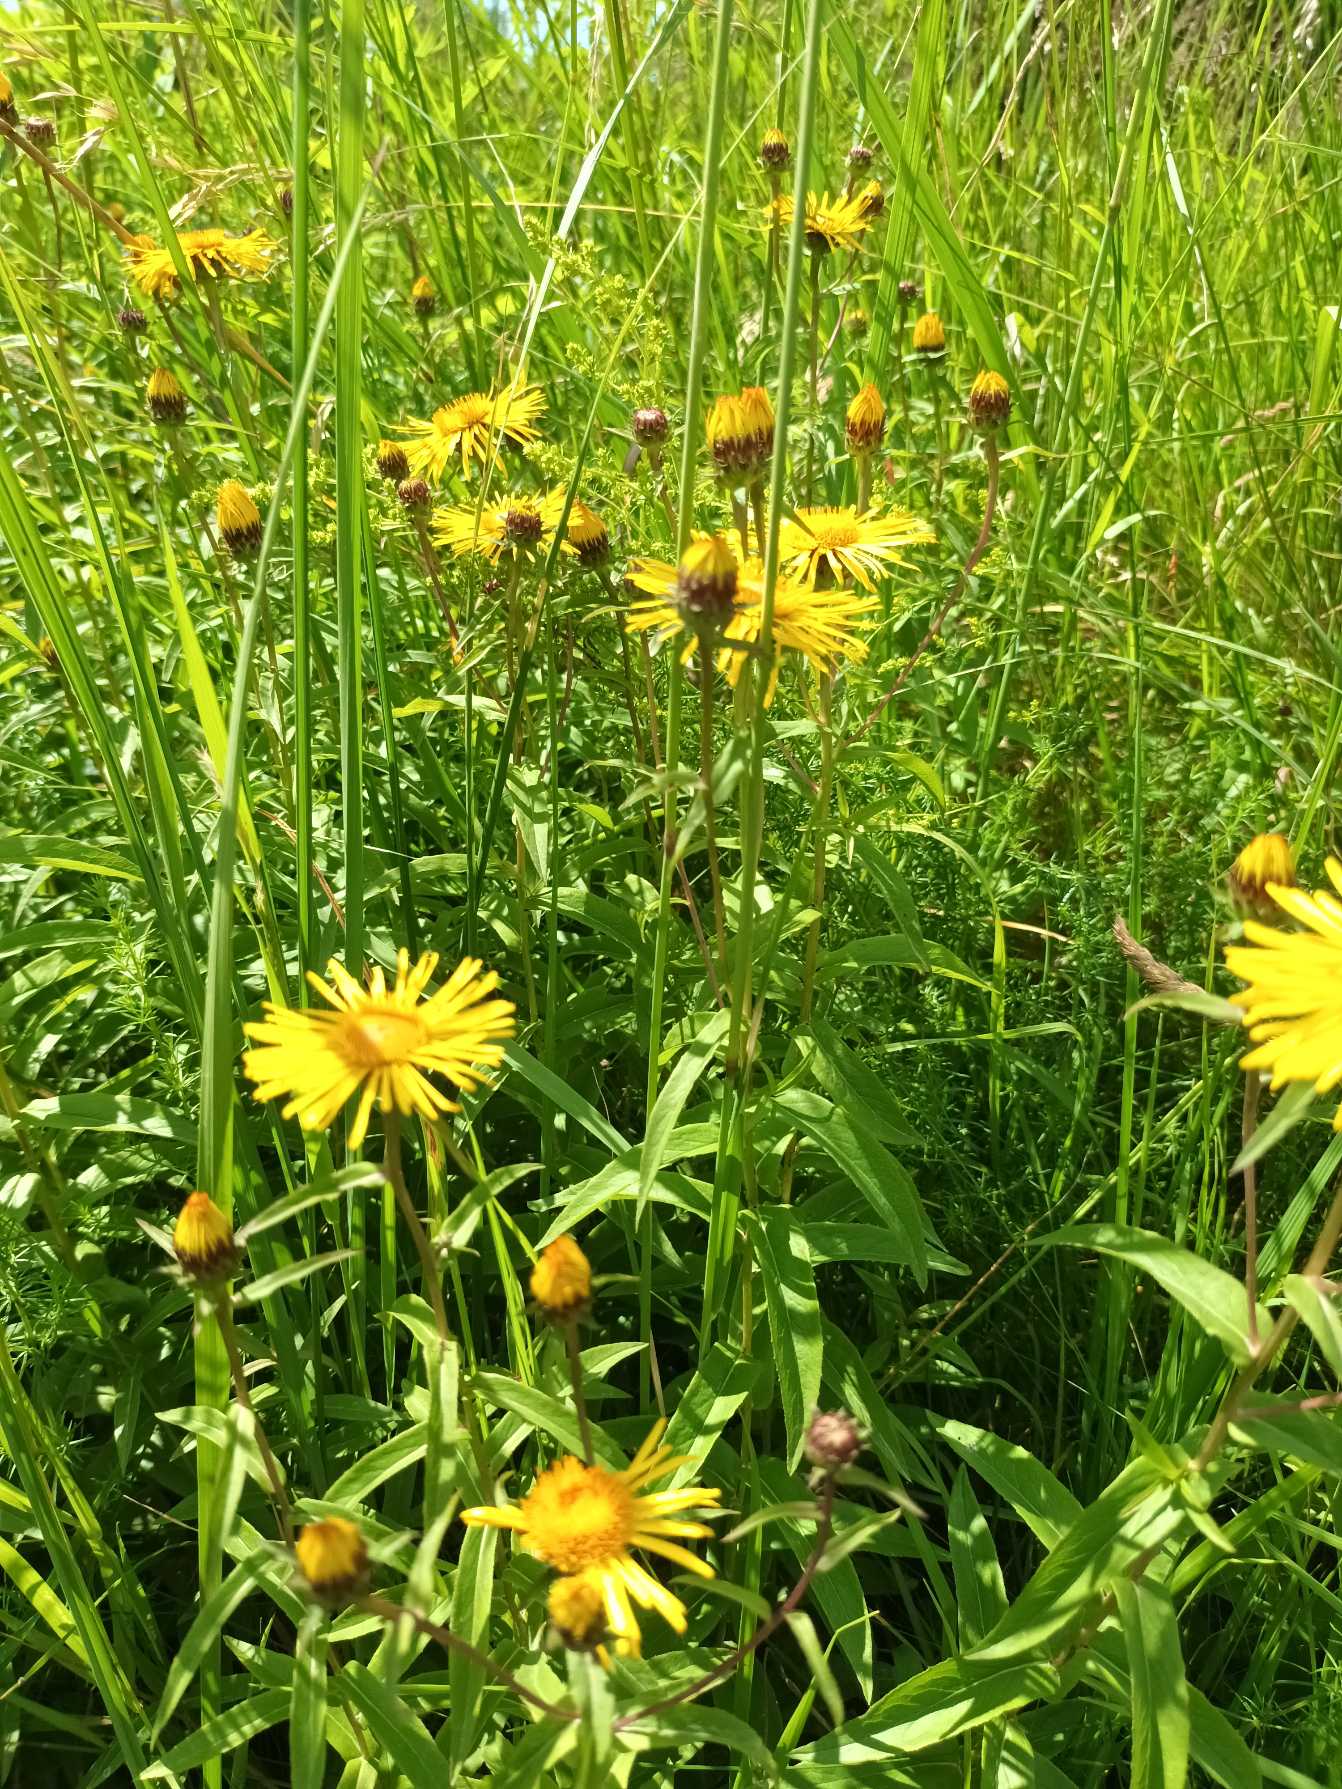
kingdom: Plantae
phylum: Tracheophyta
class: Magnoliopsida
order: Asterales
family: Asteraceae
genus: Pentanema
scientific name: Pentanema salicinum
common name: Pile-alant
